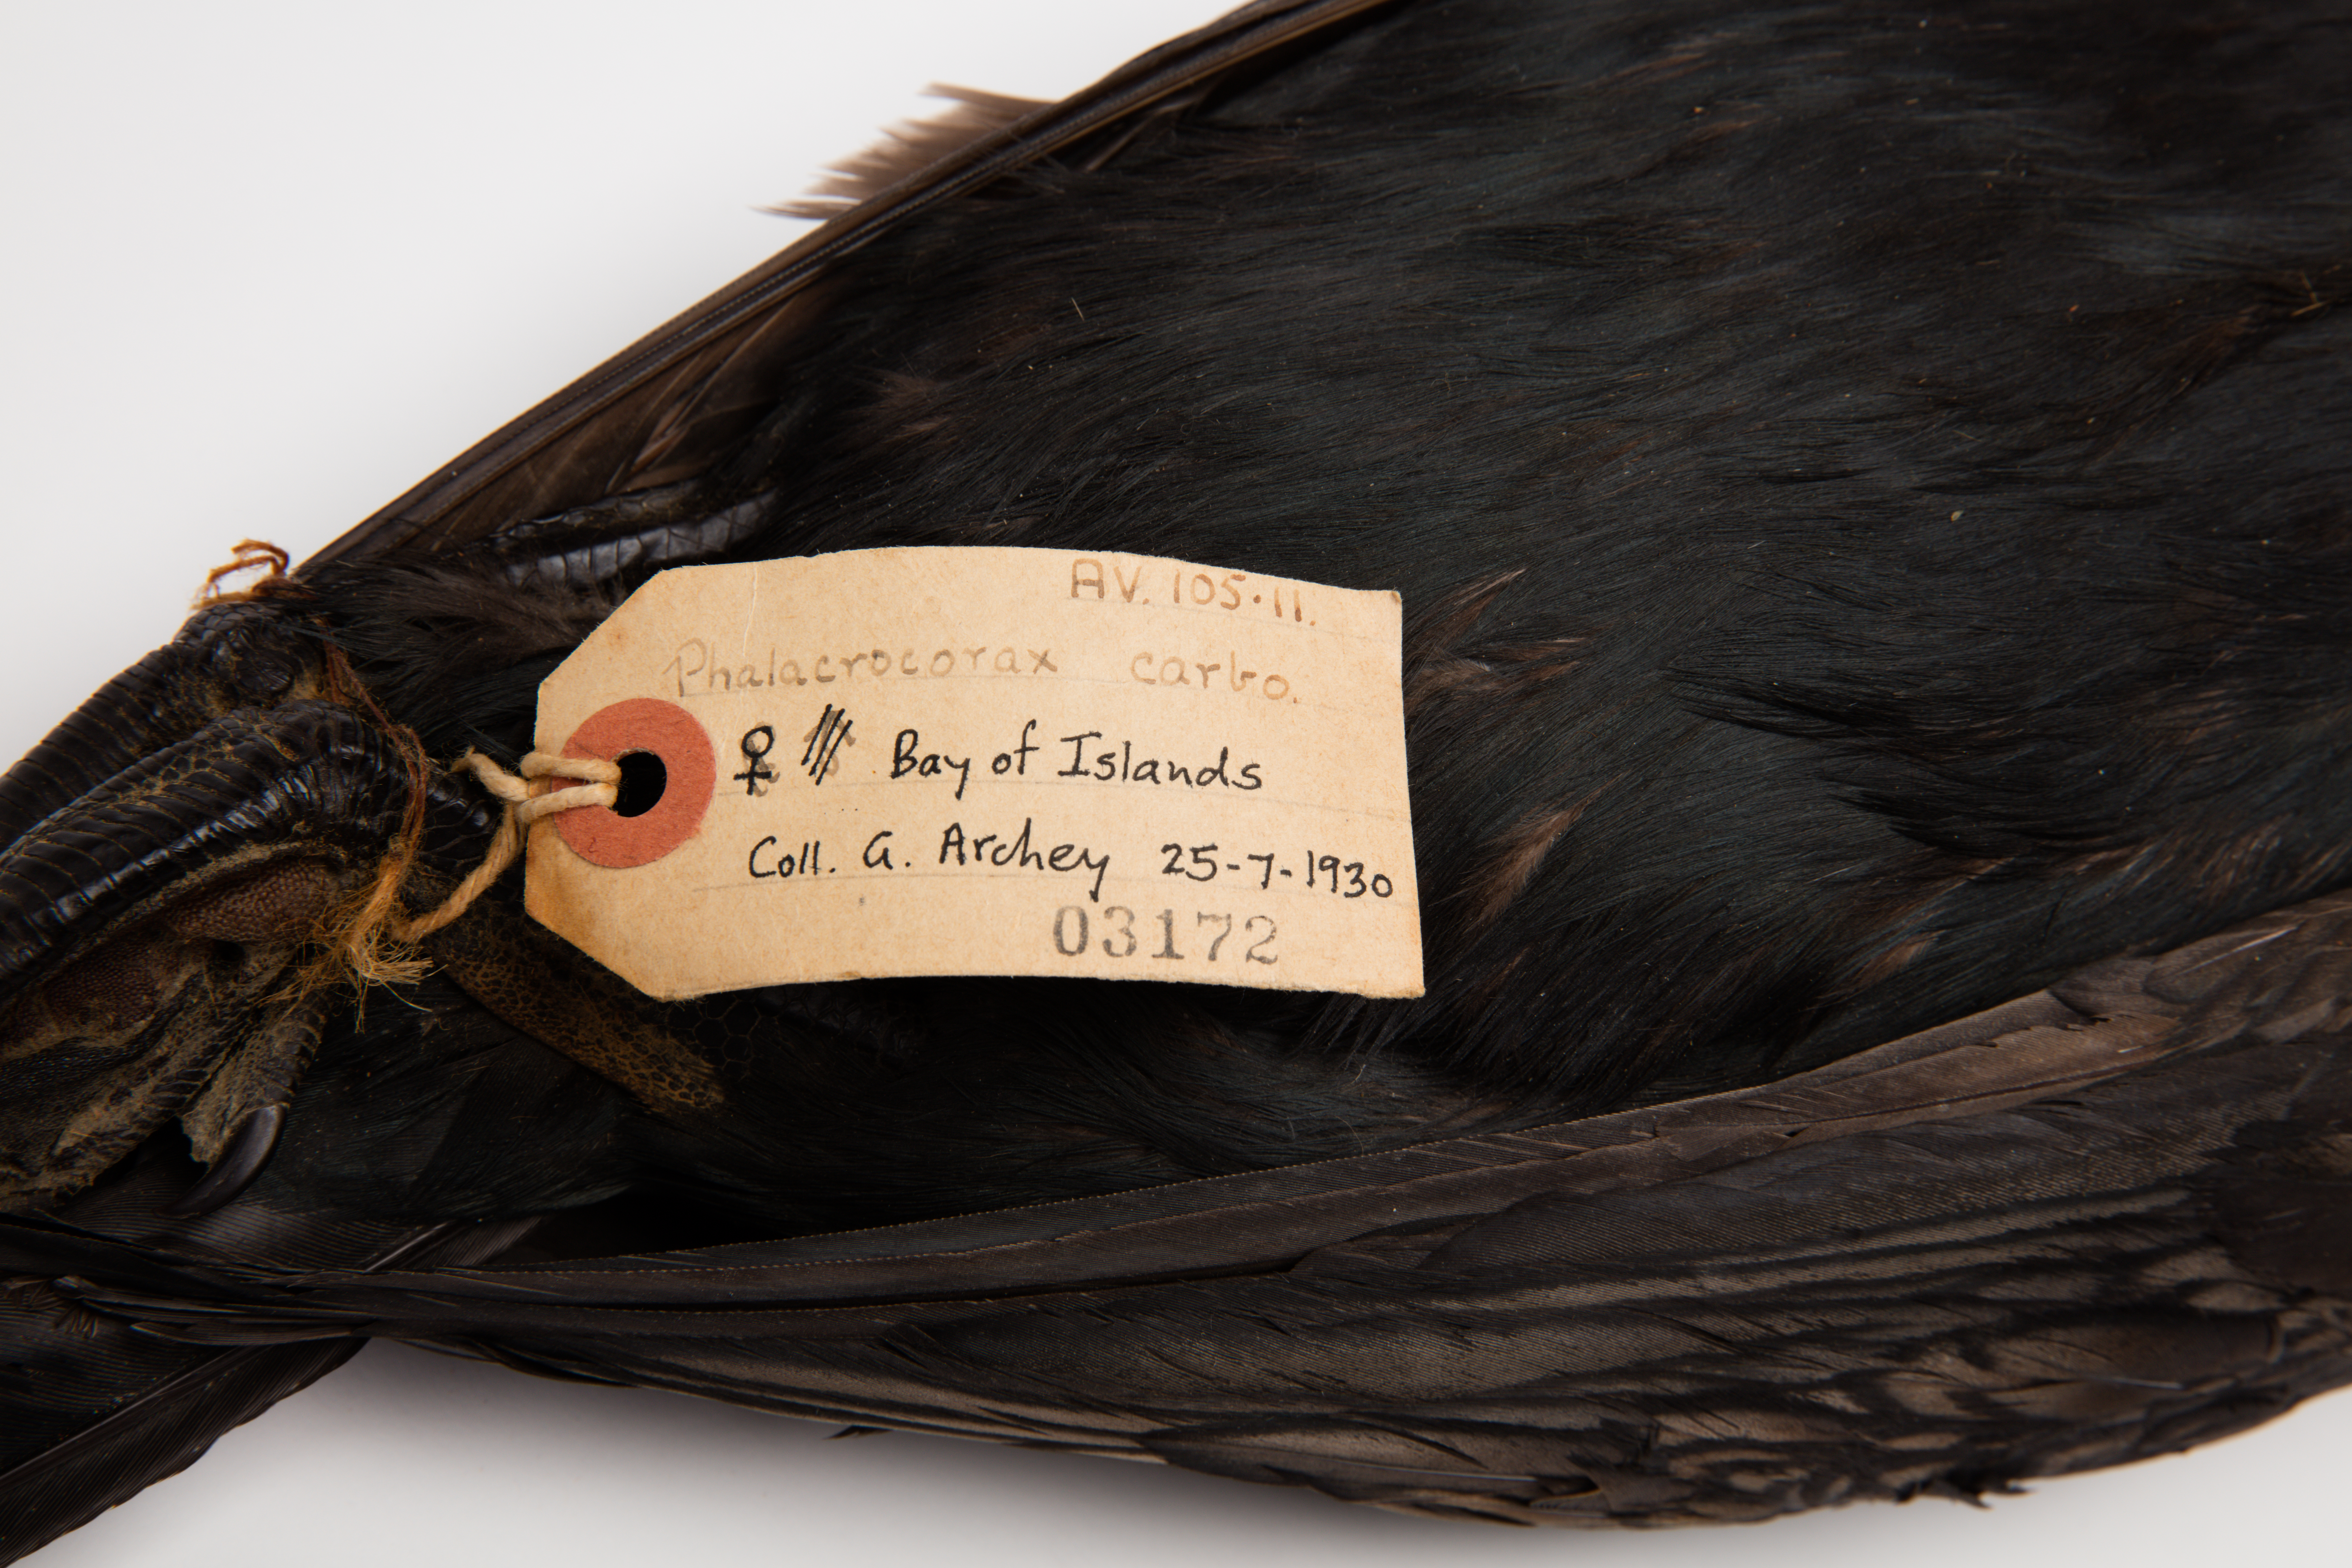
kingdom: Animalia
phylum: Chordata
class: Aves
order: Suliformes
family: Phalacrocoracidae
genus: Phalacrocorax
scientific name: Phalacrocorax carbo
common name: Great cormorant
